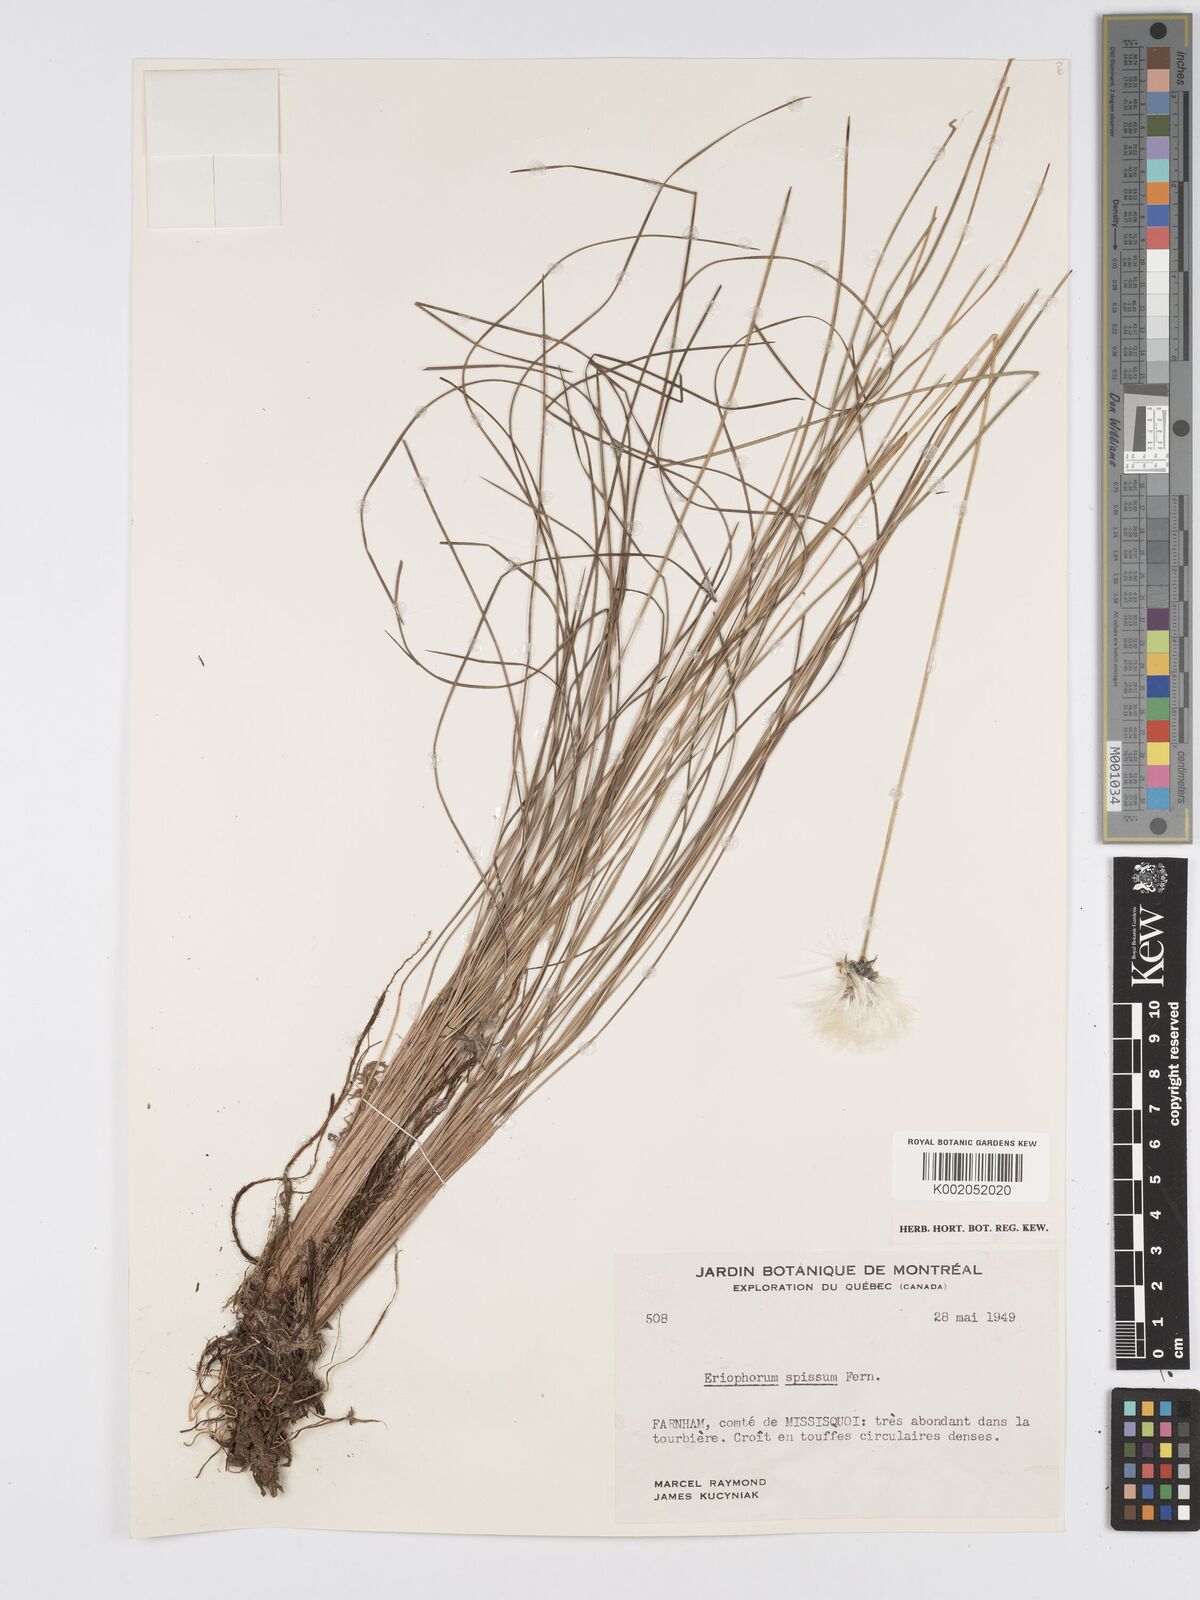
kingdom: Plantae
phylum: Tracheophyta
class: Liliopsida
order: Poales
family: Cyperaceae
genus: Eriophorum
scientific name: Eriophorum vaginatum
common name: Hare's-tail cottongrass
